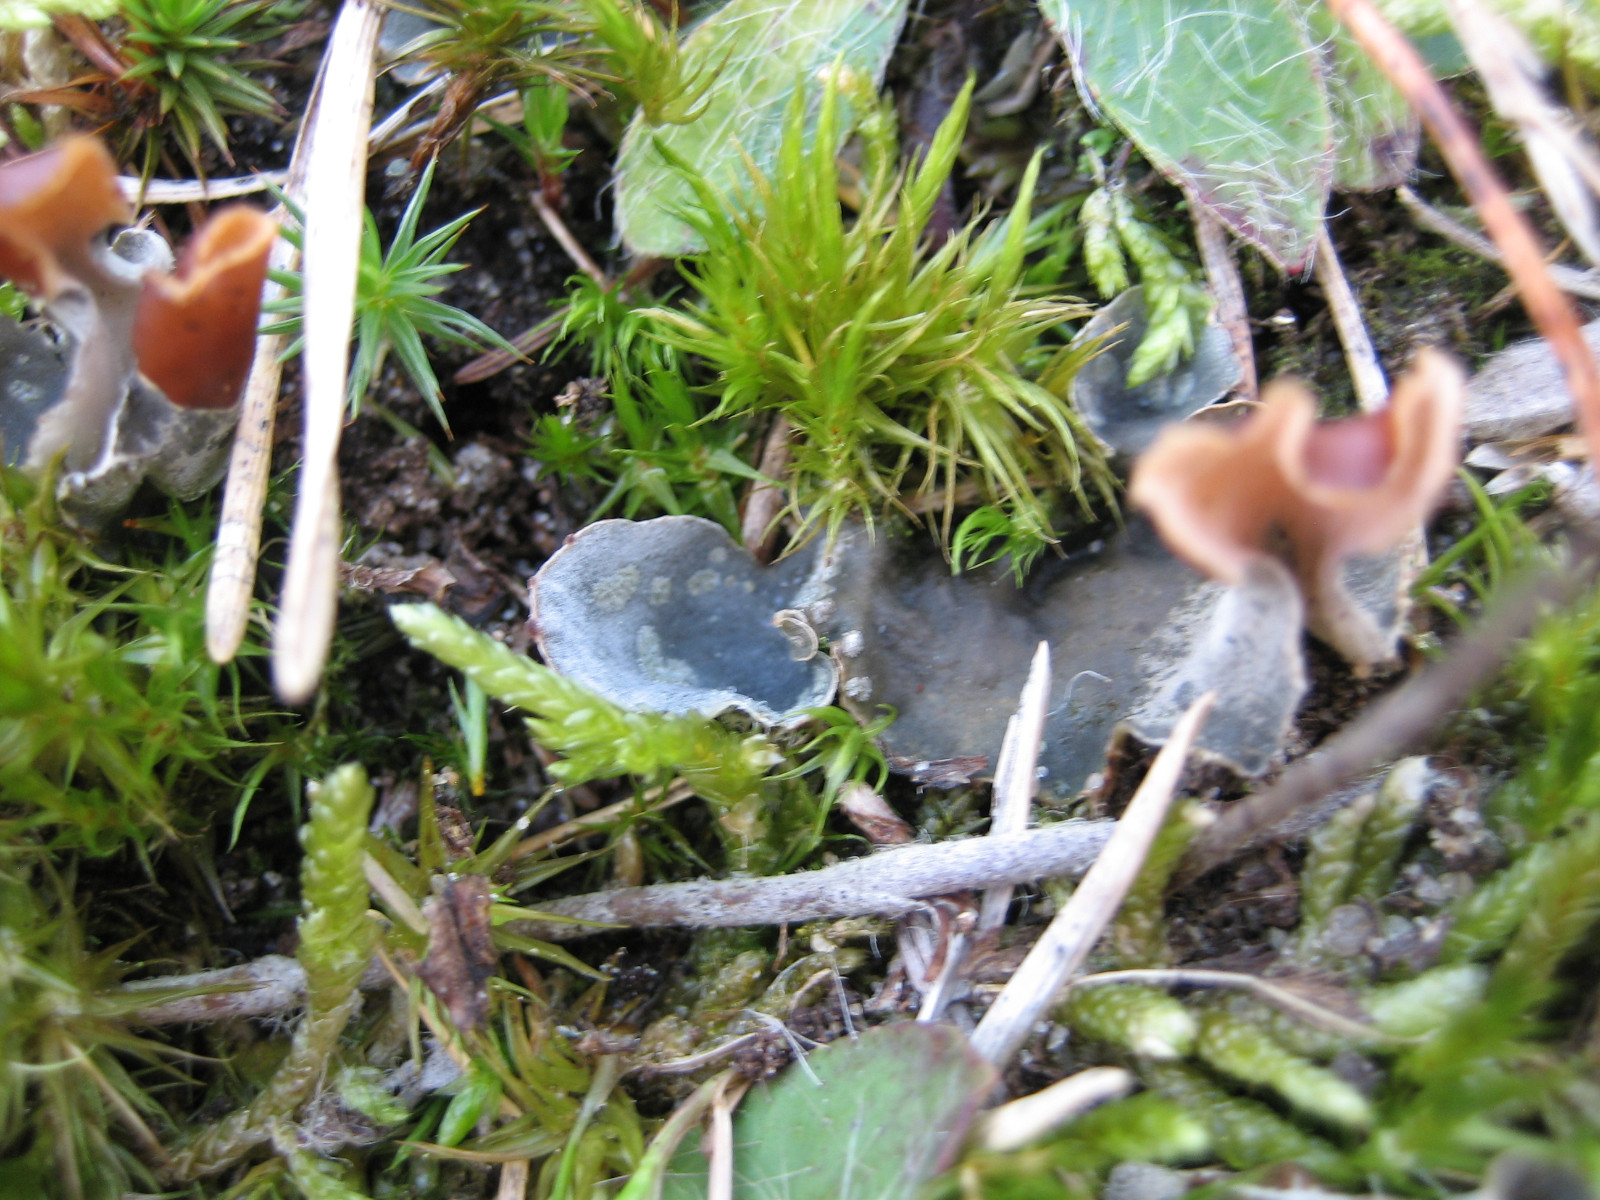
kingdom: Fungi
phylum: Ascomycota
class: Lecanoromycetes
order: Peltigerales
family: Peltigeraceae
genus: Peltigera
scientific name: Peltigera didactyla
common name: liden skjoldlav
